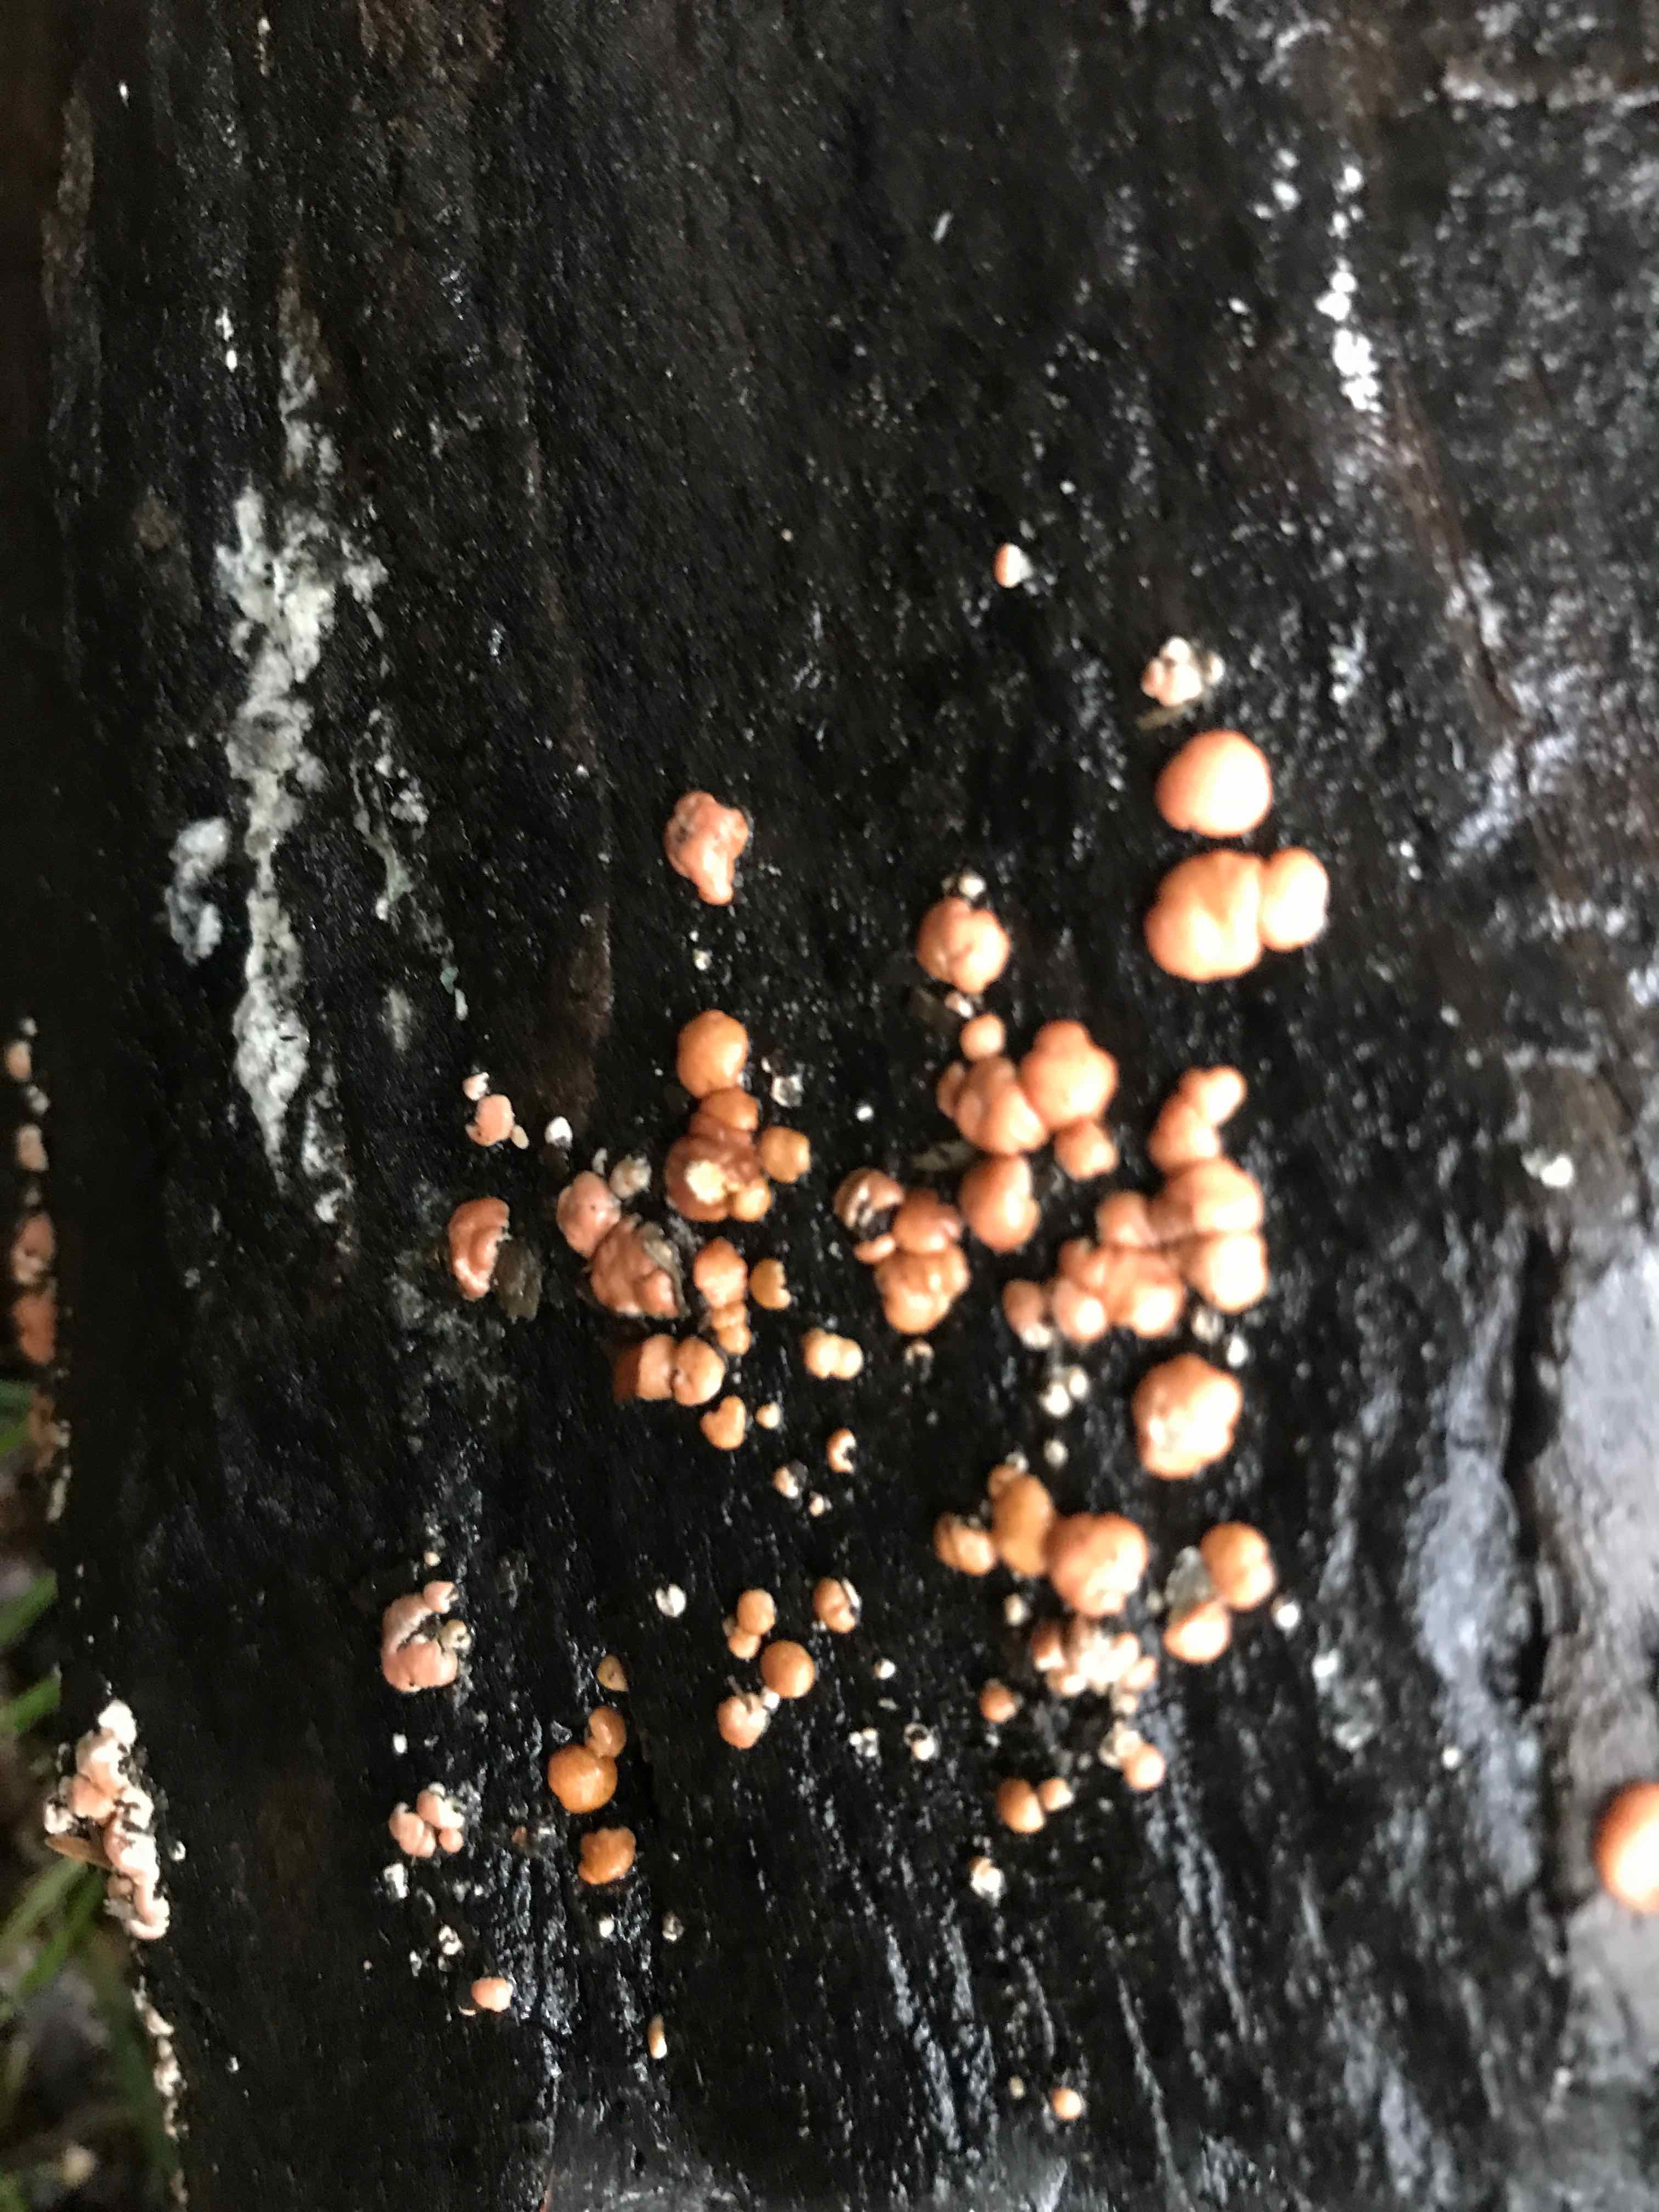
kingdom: Fungi
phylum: Ascomycota
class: Sordariomycetes
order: Hypocreales
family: Hypocreaceae
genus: Trichoderma
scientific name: Trichoderma europaeum
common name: rosabrun kødkerne
